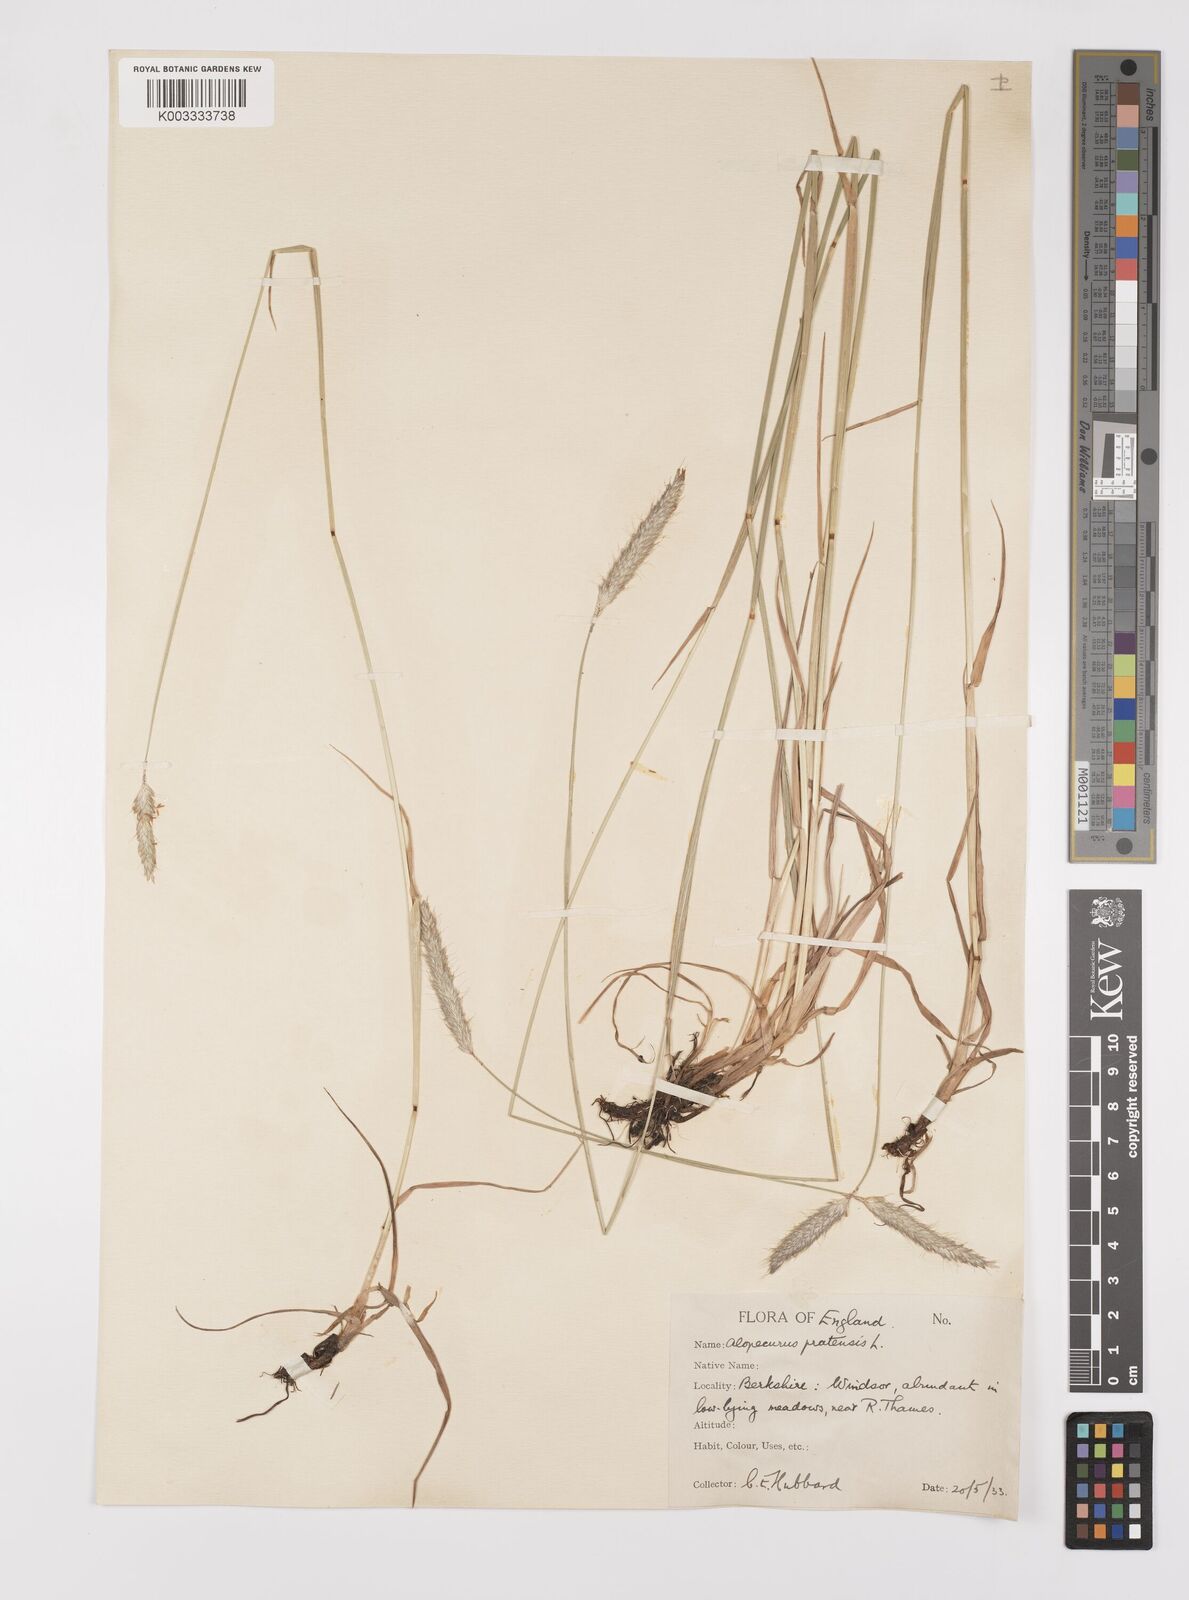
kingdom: Plantae
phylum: Tracheophyta
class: Liliopsida
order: Poales
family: Poaceae
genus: Alopecurus
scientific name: Alopecurus pratensis
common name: Meadow foxtail
